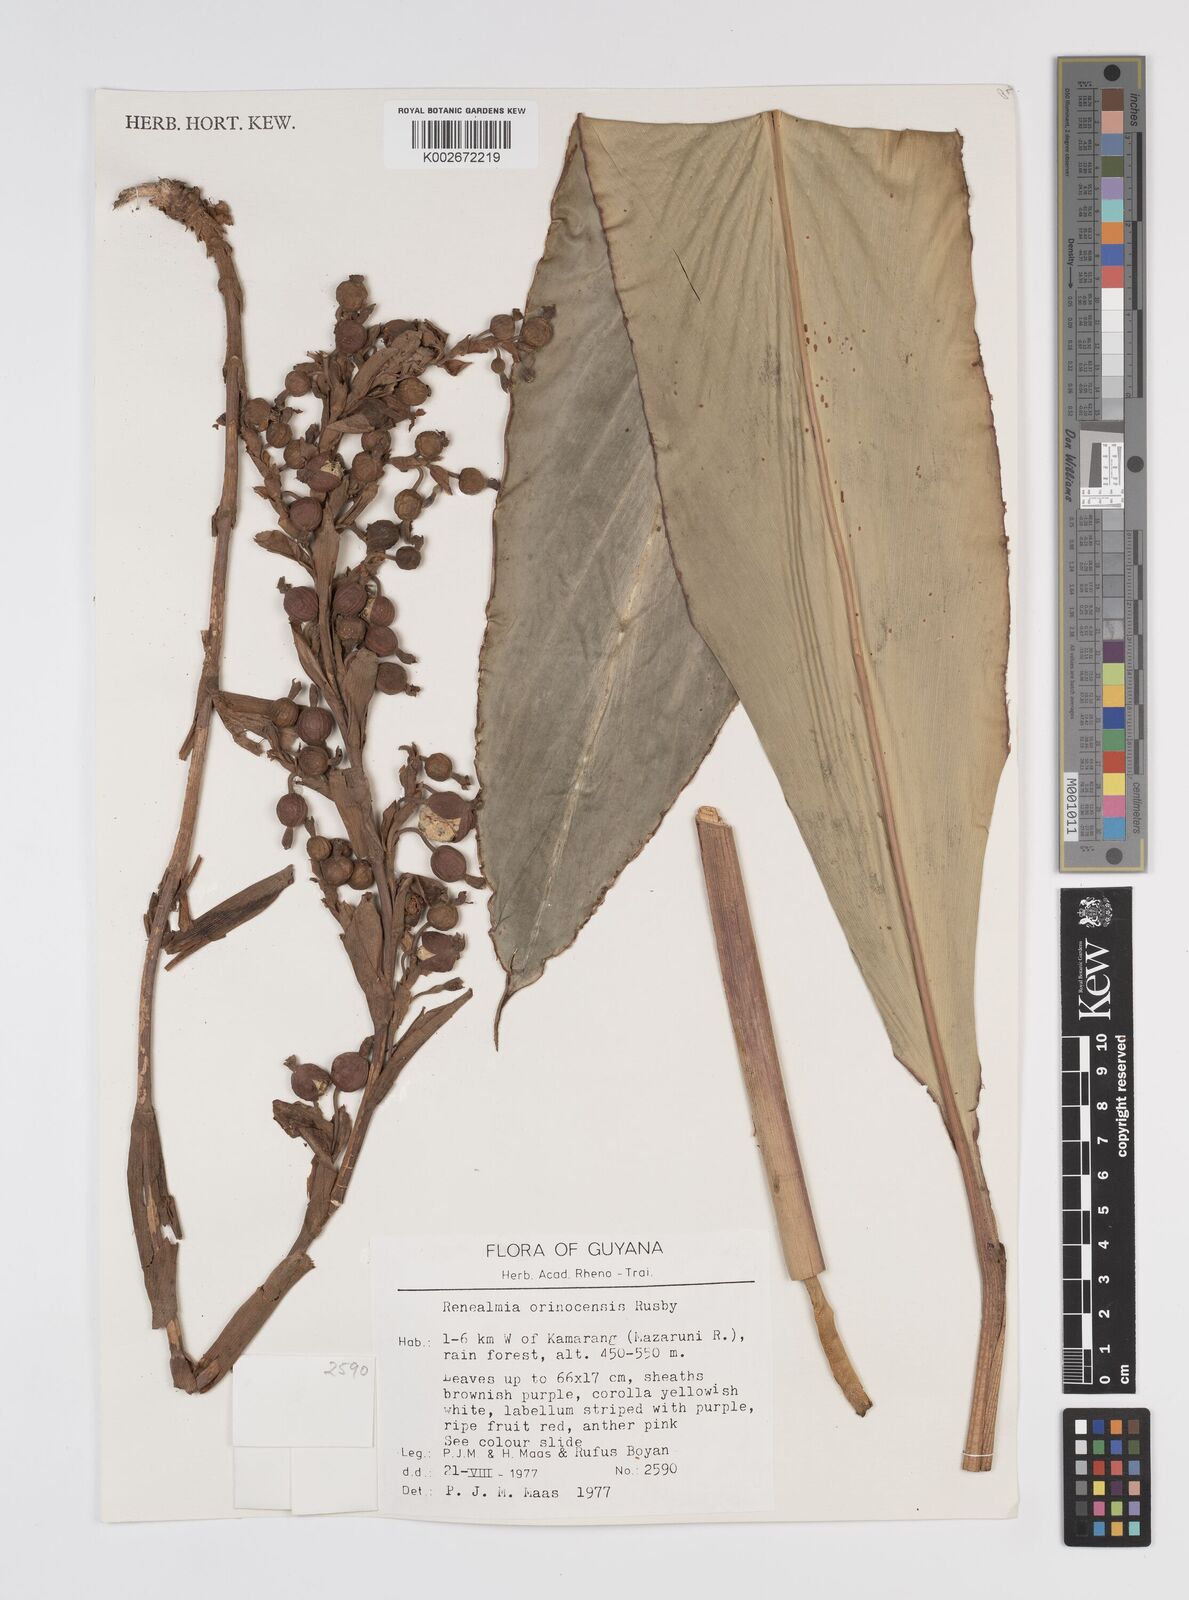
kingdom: Plantae
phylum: Tracheophyta
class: Liliopsida
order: Zingiberales
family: Zingiberaceae
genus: Renealmia
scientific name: Renealmia orinocensis
